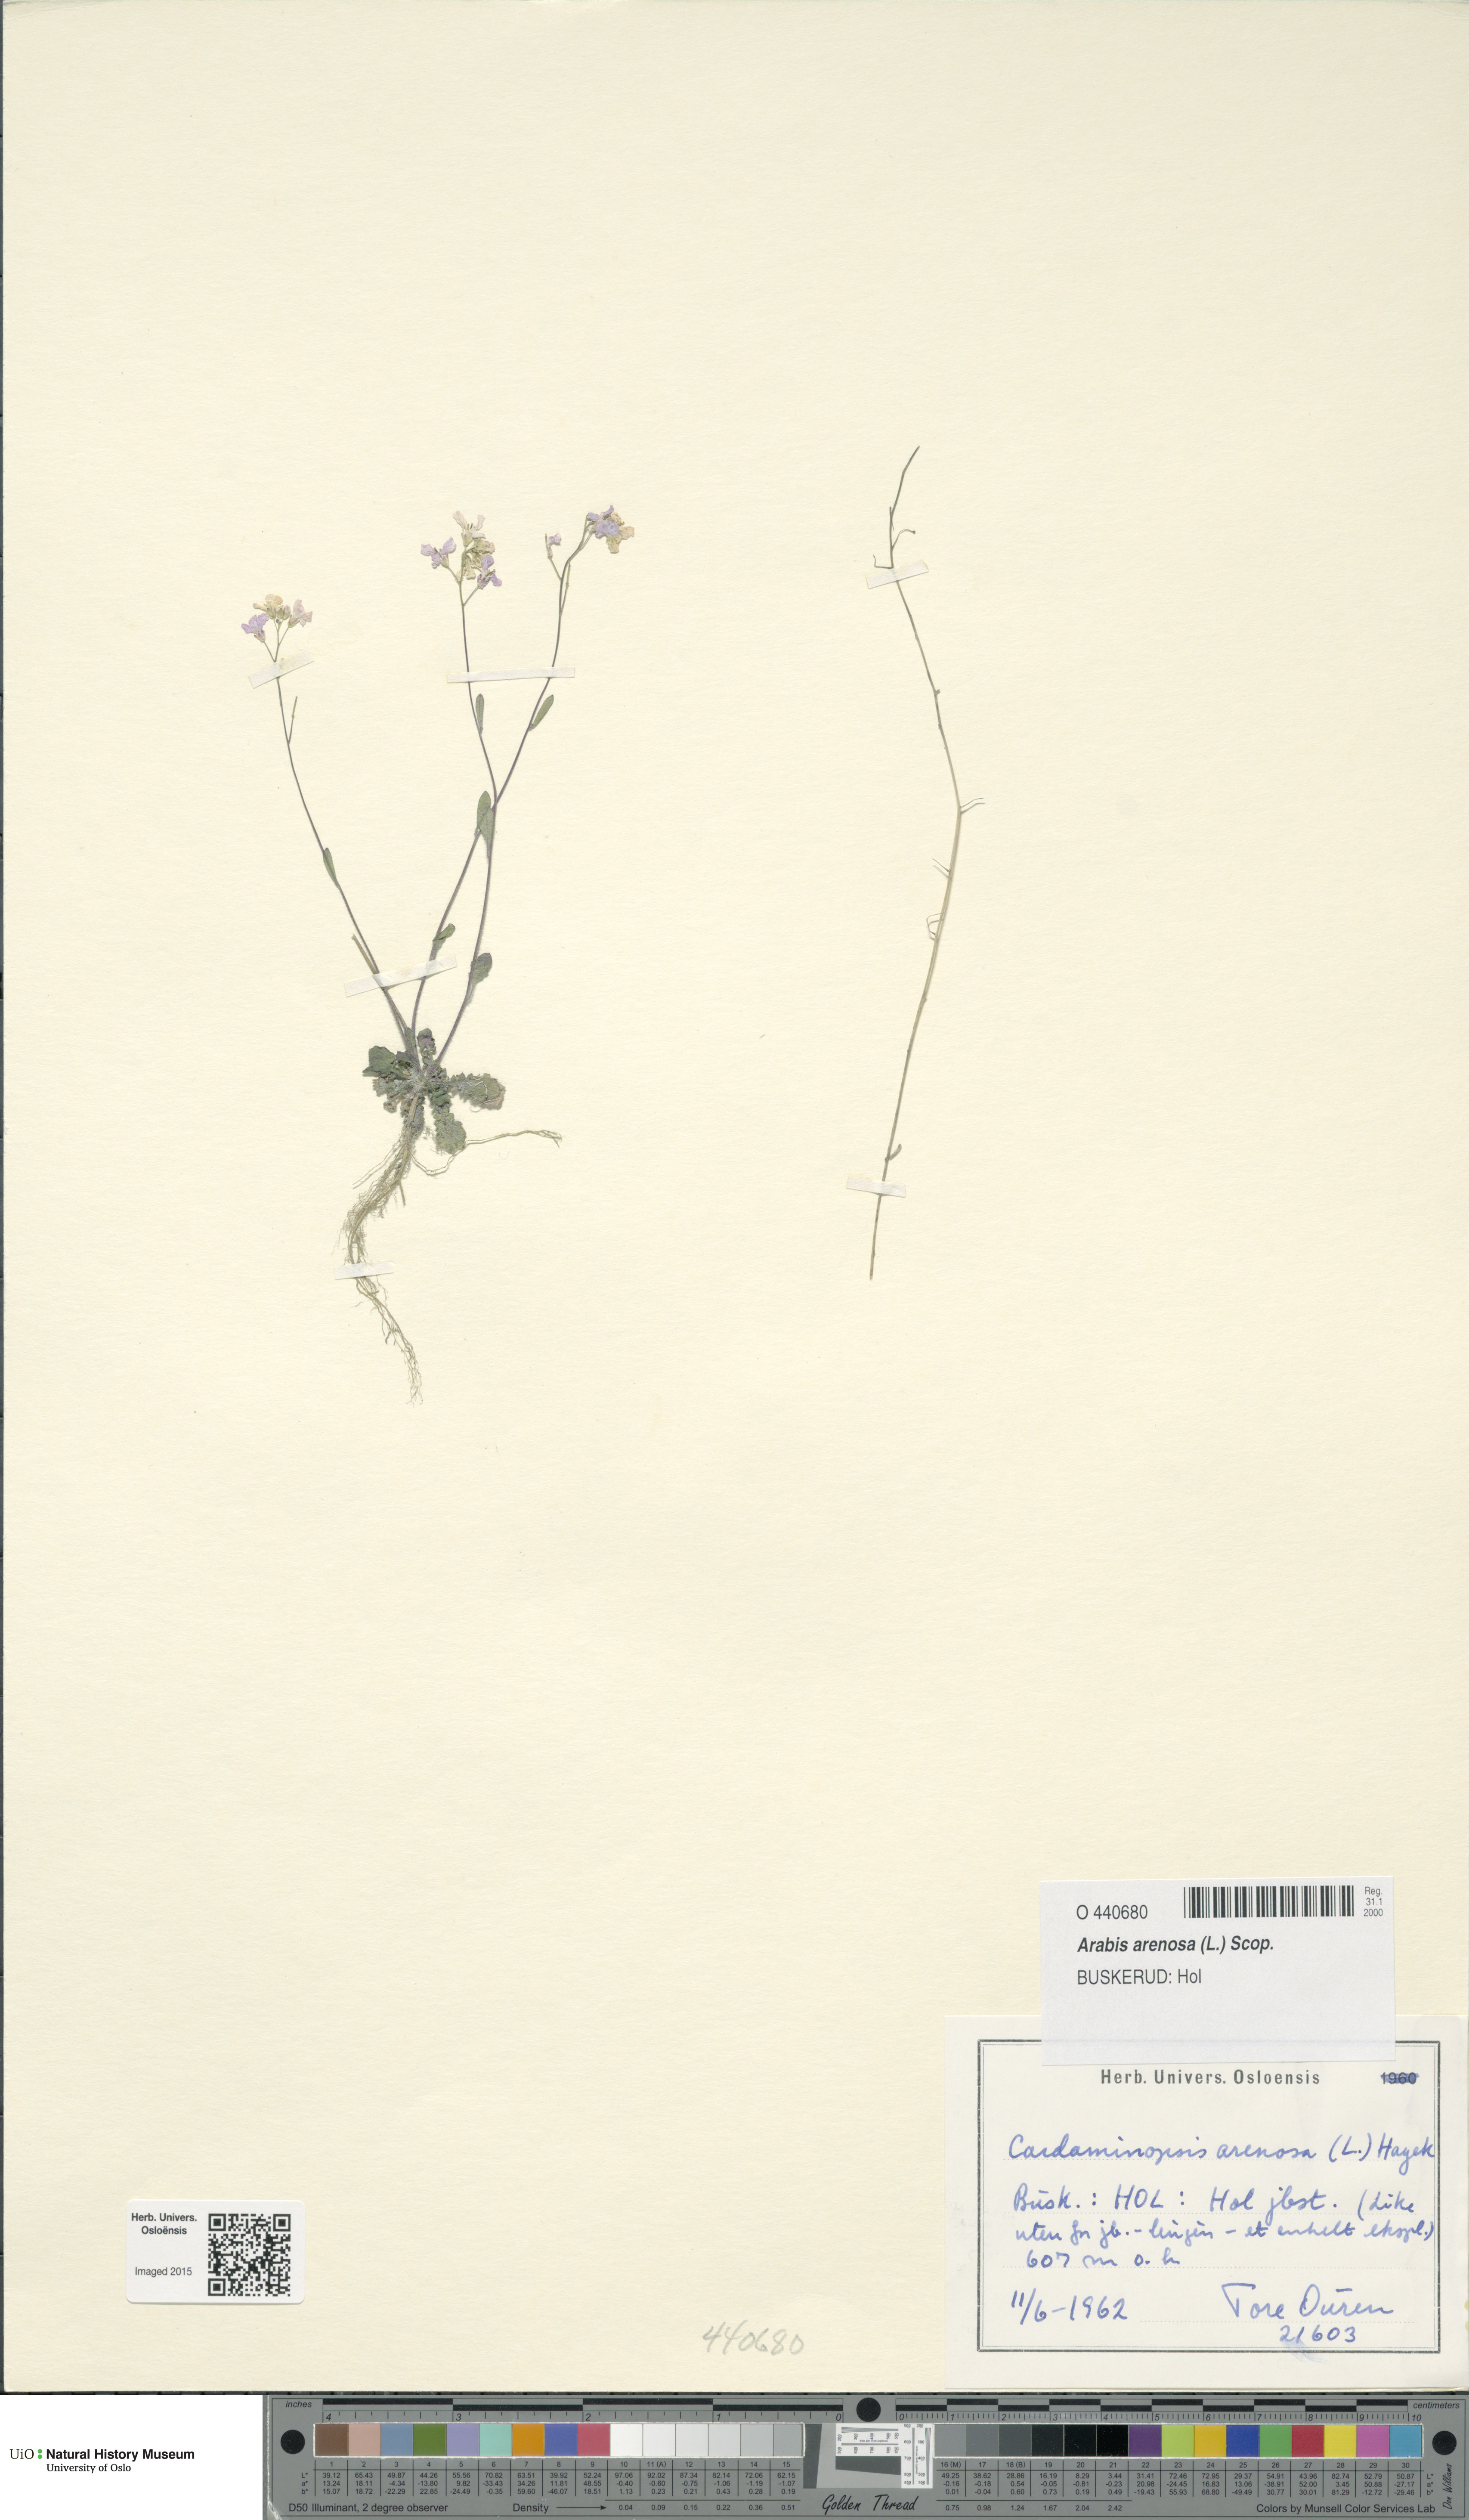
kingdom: Plantae
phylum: Tracheophyta
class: Magnoliopsida
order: Brassicales
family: Brassicaceae
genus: Arabidopsis
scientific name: Arabidopsis arenosa
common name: Sand rock-cress
